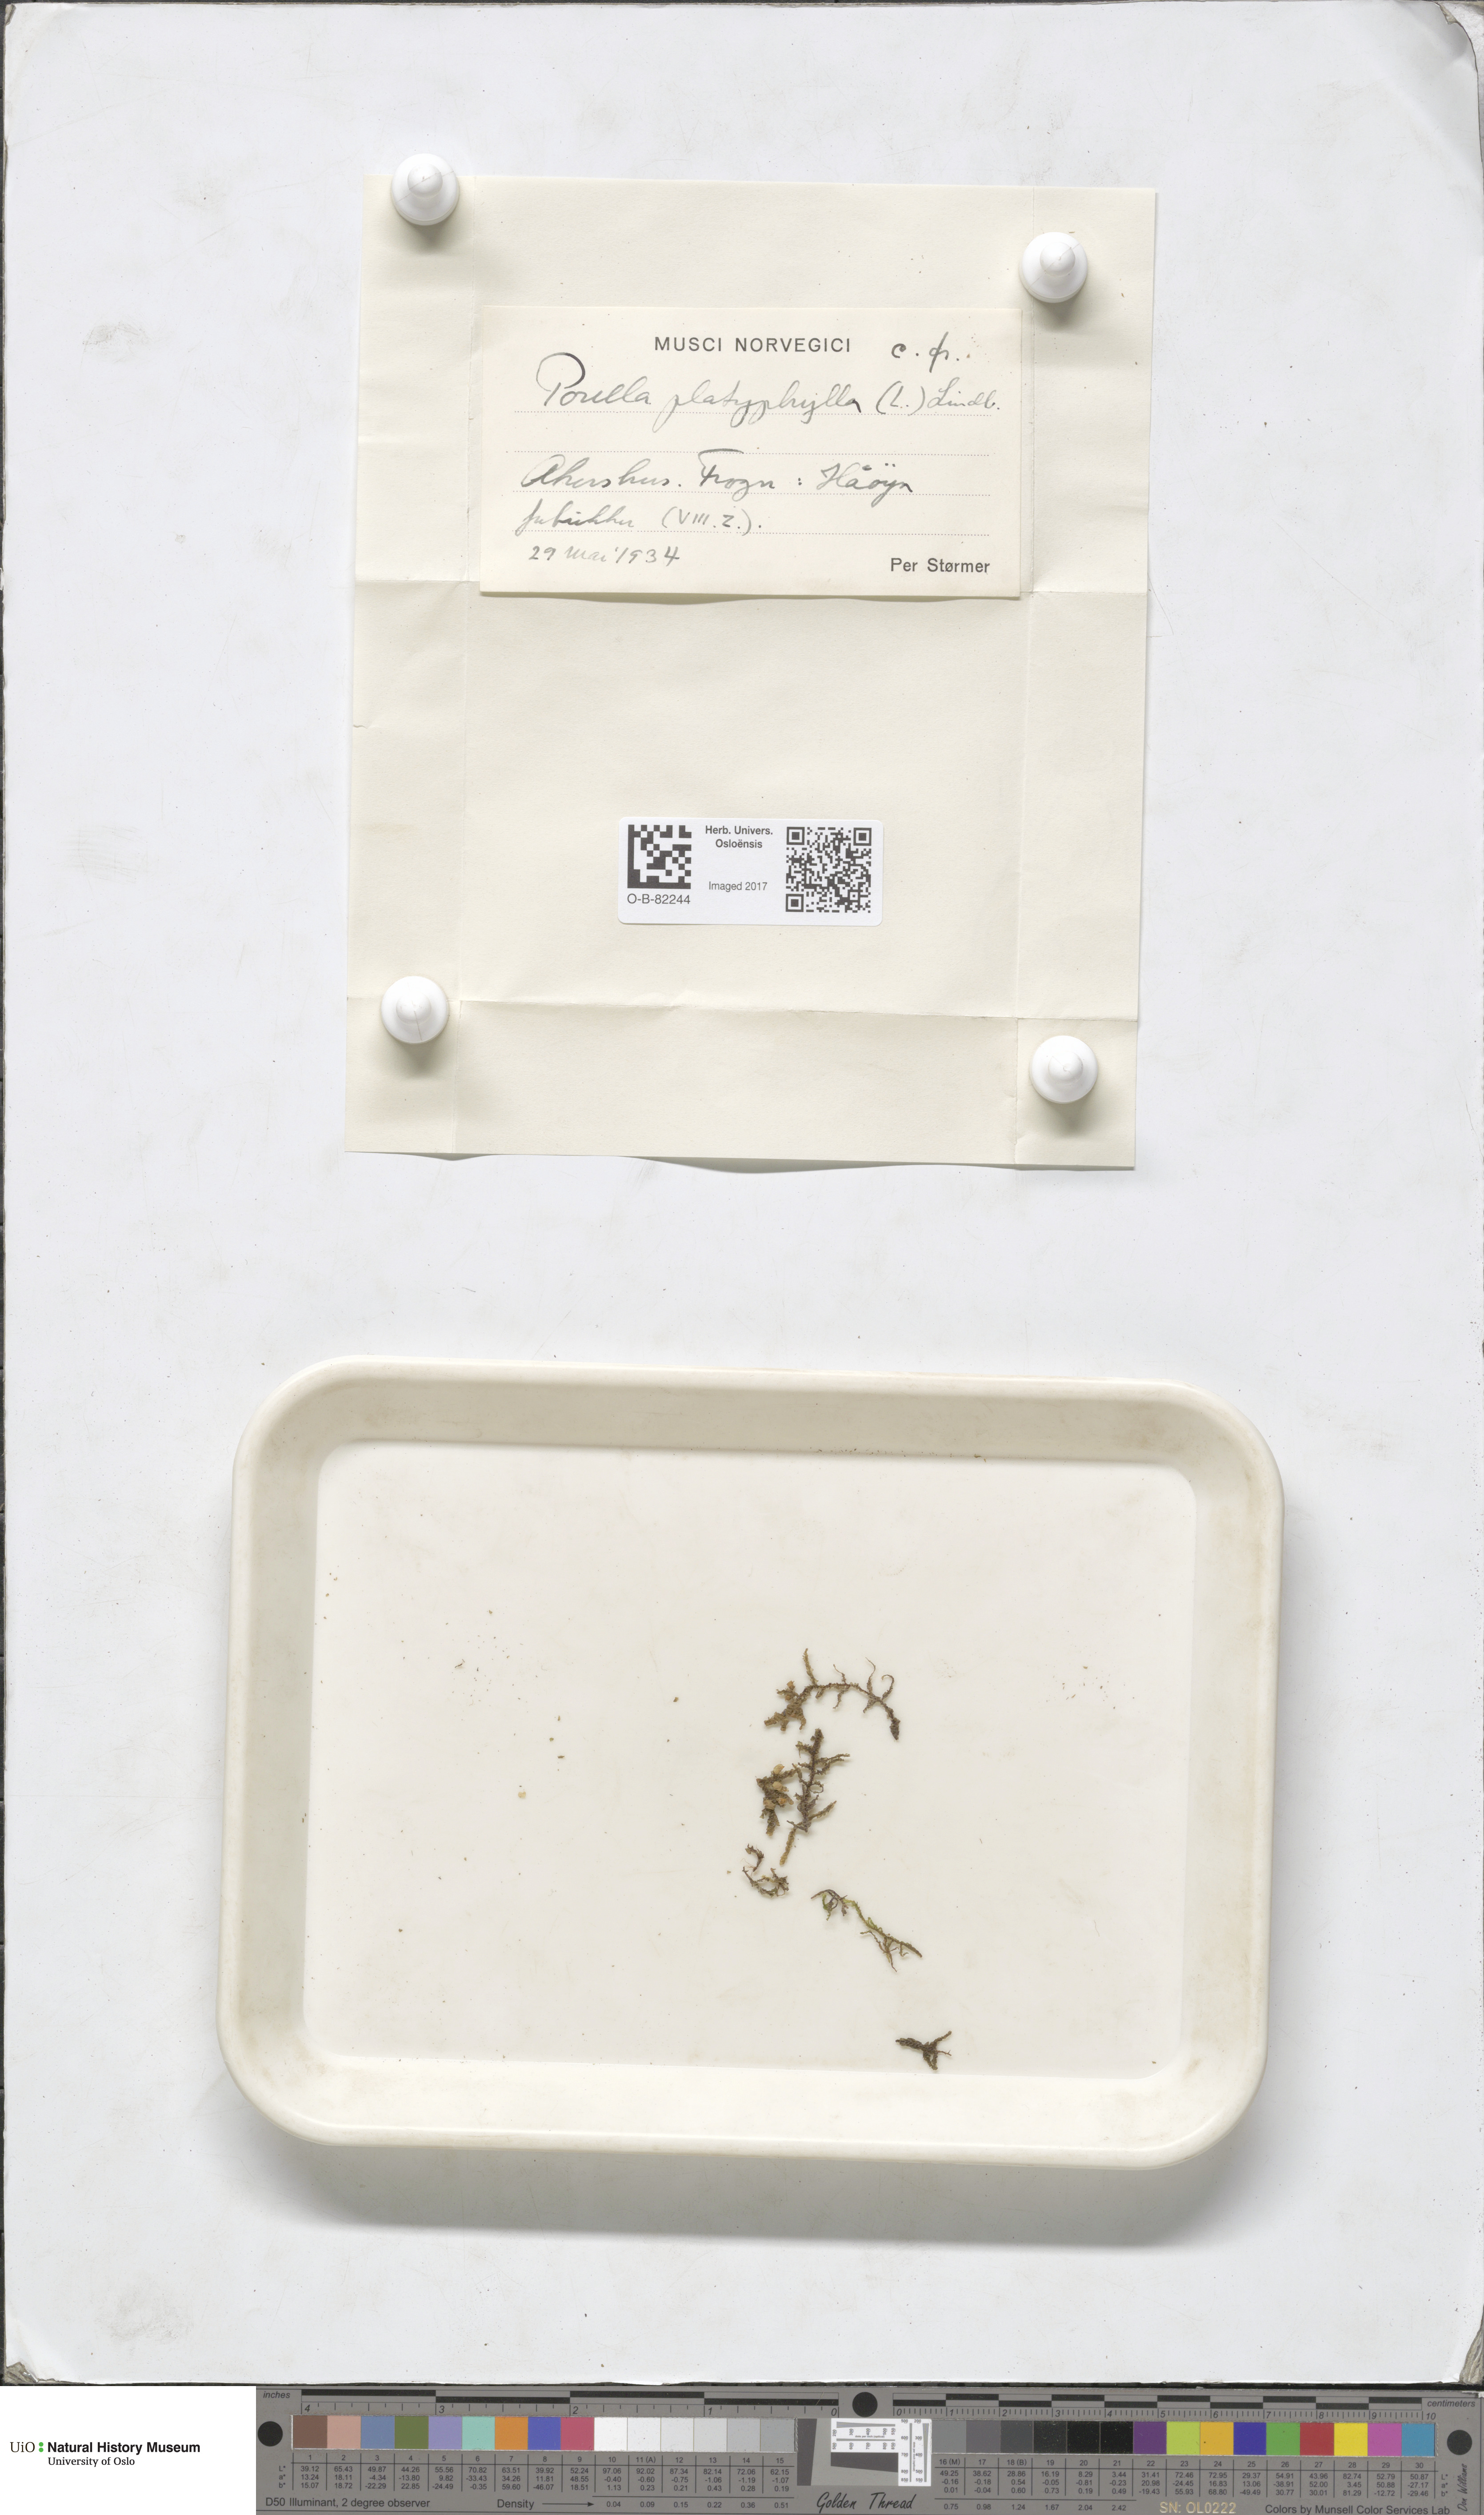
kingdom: Plantae
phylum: Marchantiophyta
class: Jungermanniopsida
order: Porellales
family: Porellaceae
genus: Porella
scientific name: Porella platyphylla
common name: Wall scalewort
